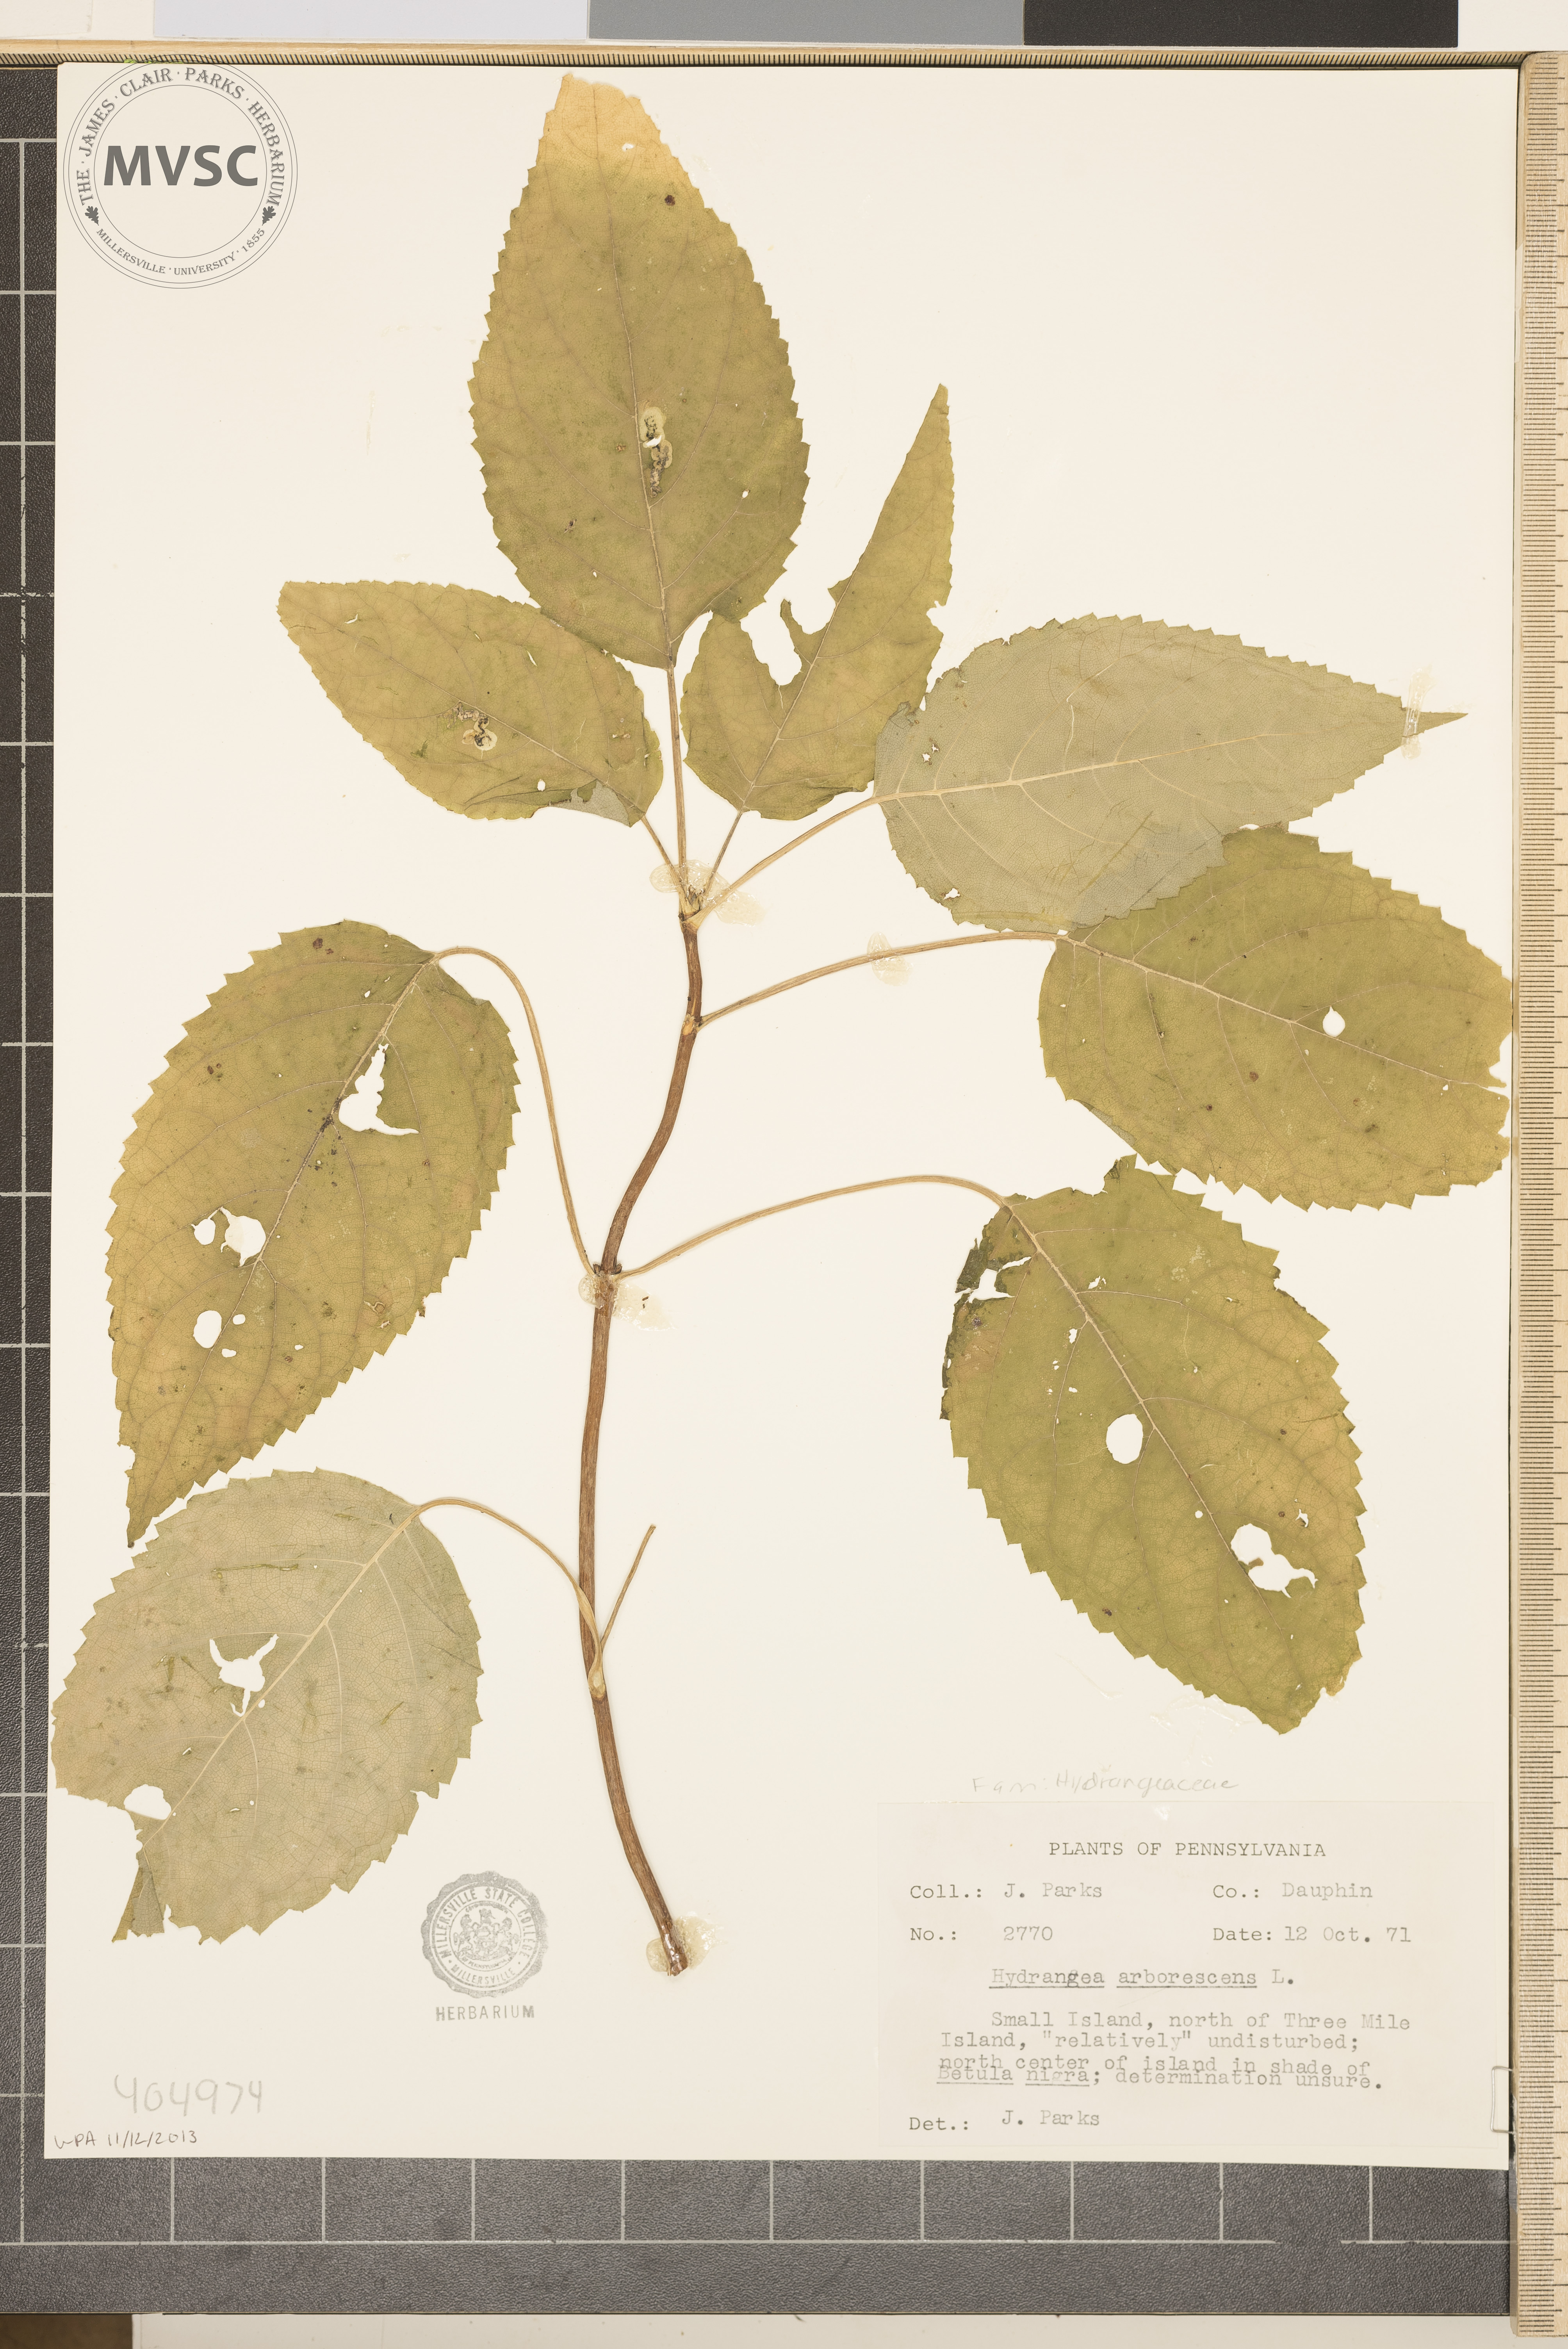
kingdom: Plantae
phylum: Tracheophyta
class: Magnoliopsida
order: Cornales
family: Hydrangeaceae
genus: Hydrangea
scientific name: Hydrangea arborescens
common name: Sevenbark
